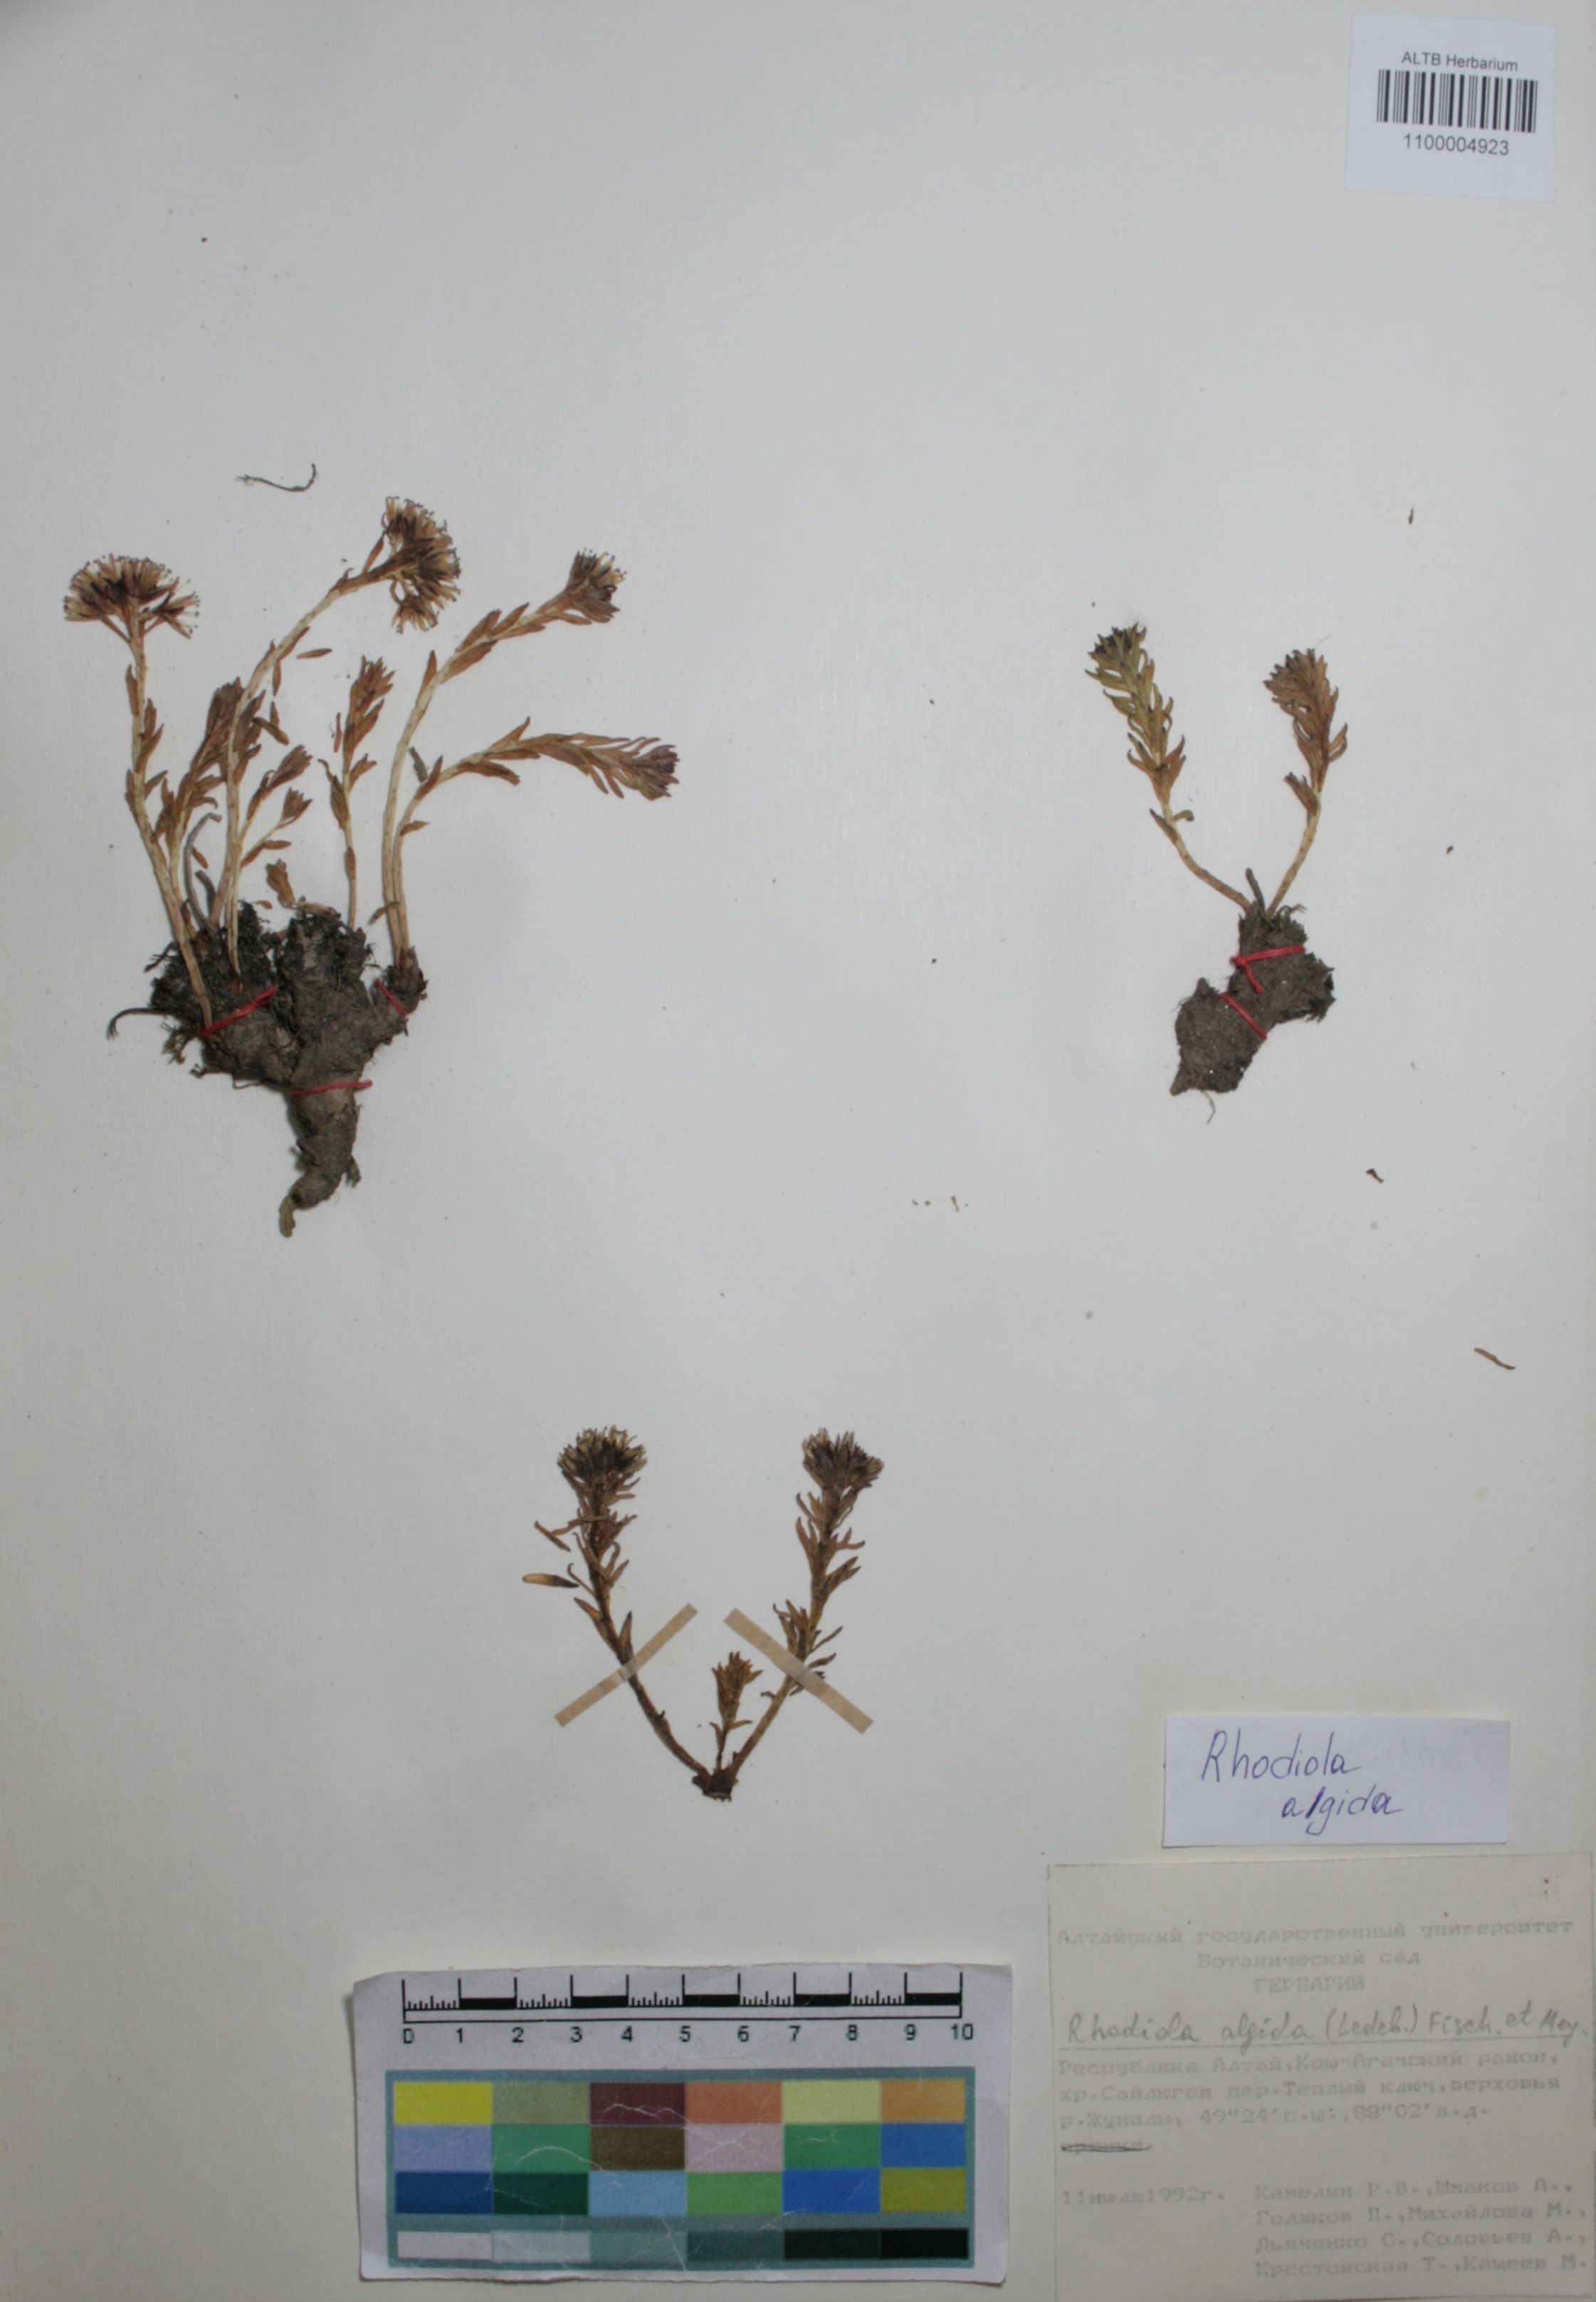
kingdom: Plantae
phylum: Tracheophyta
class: Magnoliopsida
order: Saxifragales
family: Crassulaceae
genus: Rhodiola
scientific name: Rhodiola algida
